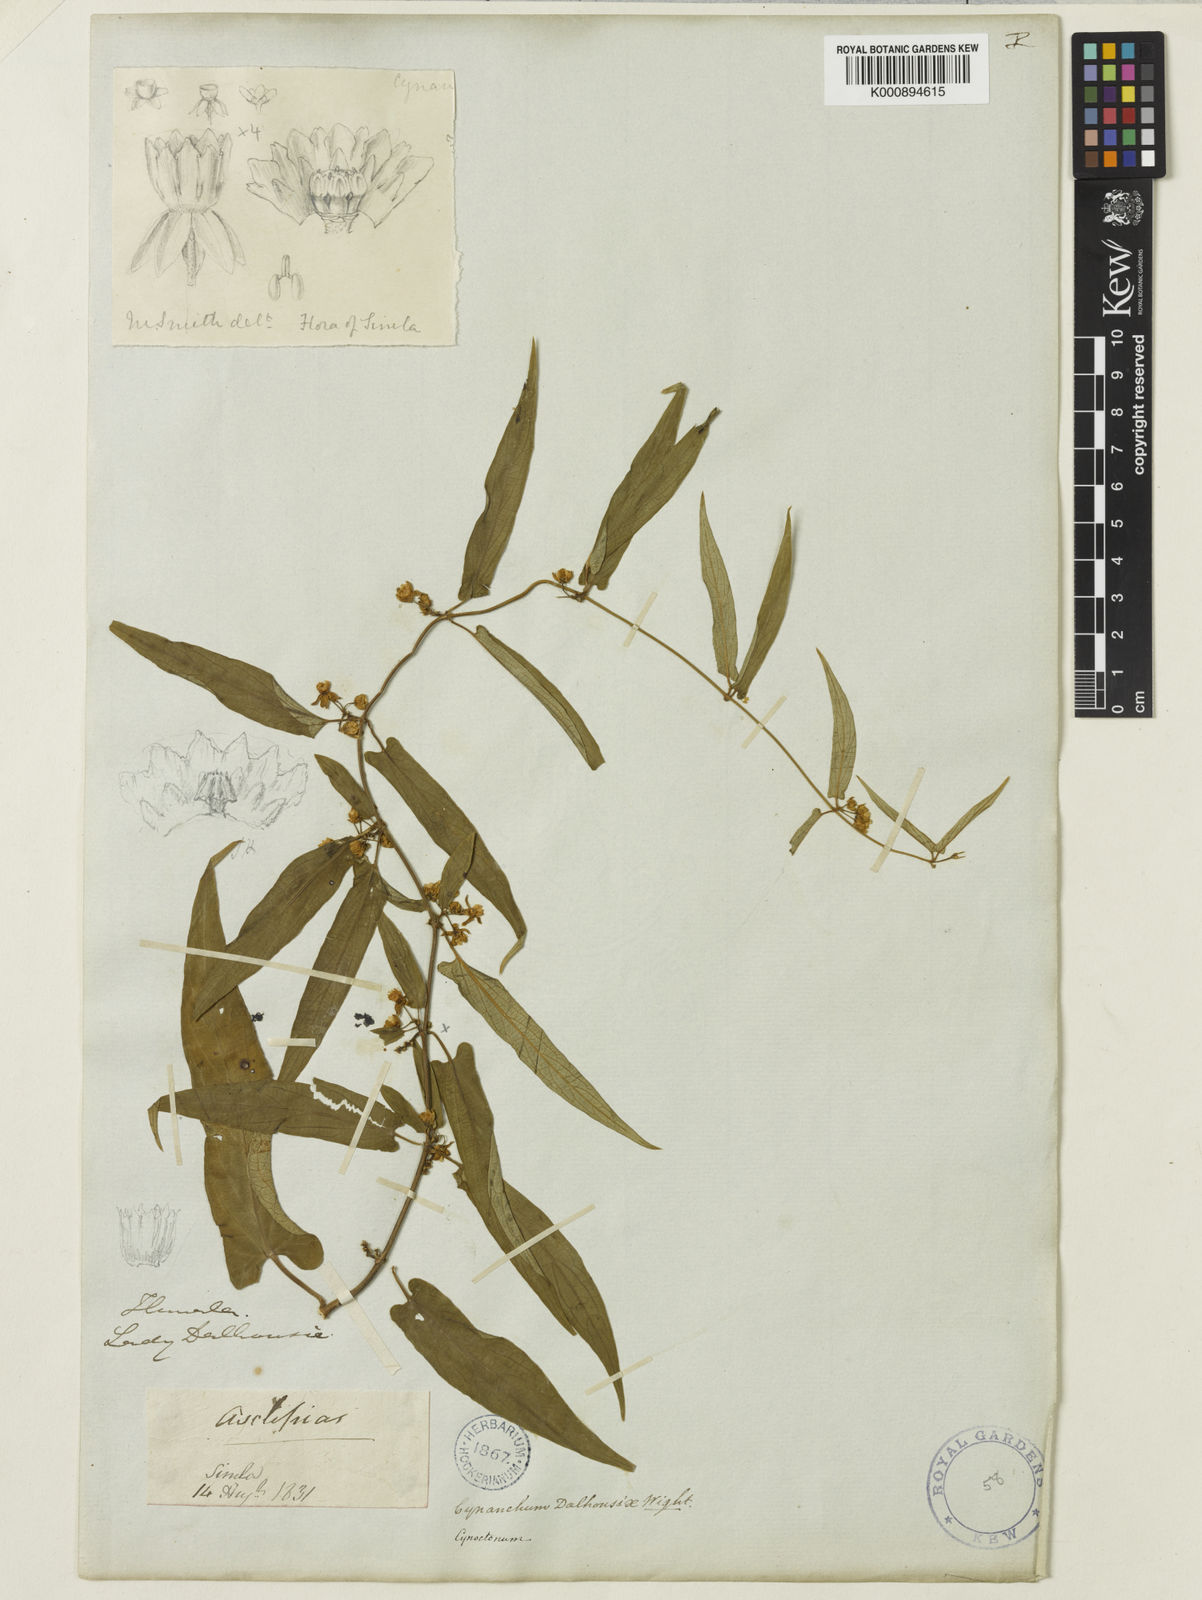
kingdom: Plantae
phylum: Tracheophyta
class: Magnoliopsida
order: Gentianales
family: Apocynaceae
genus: Cynanchum
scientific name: Cynanchum
